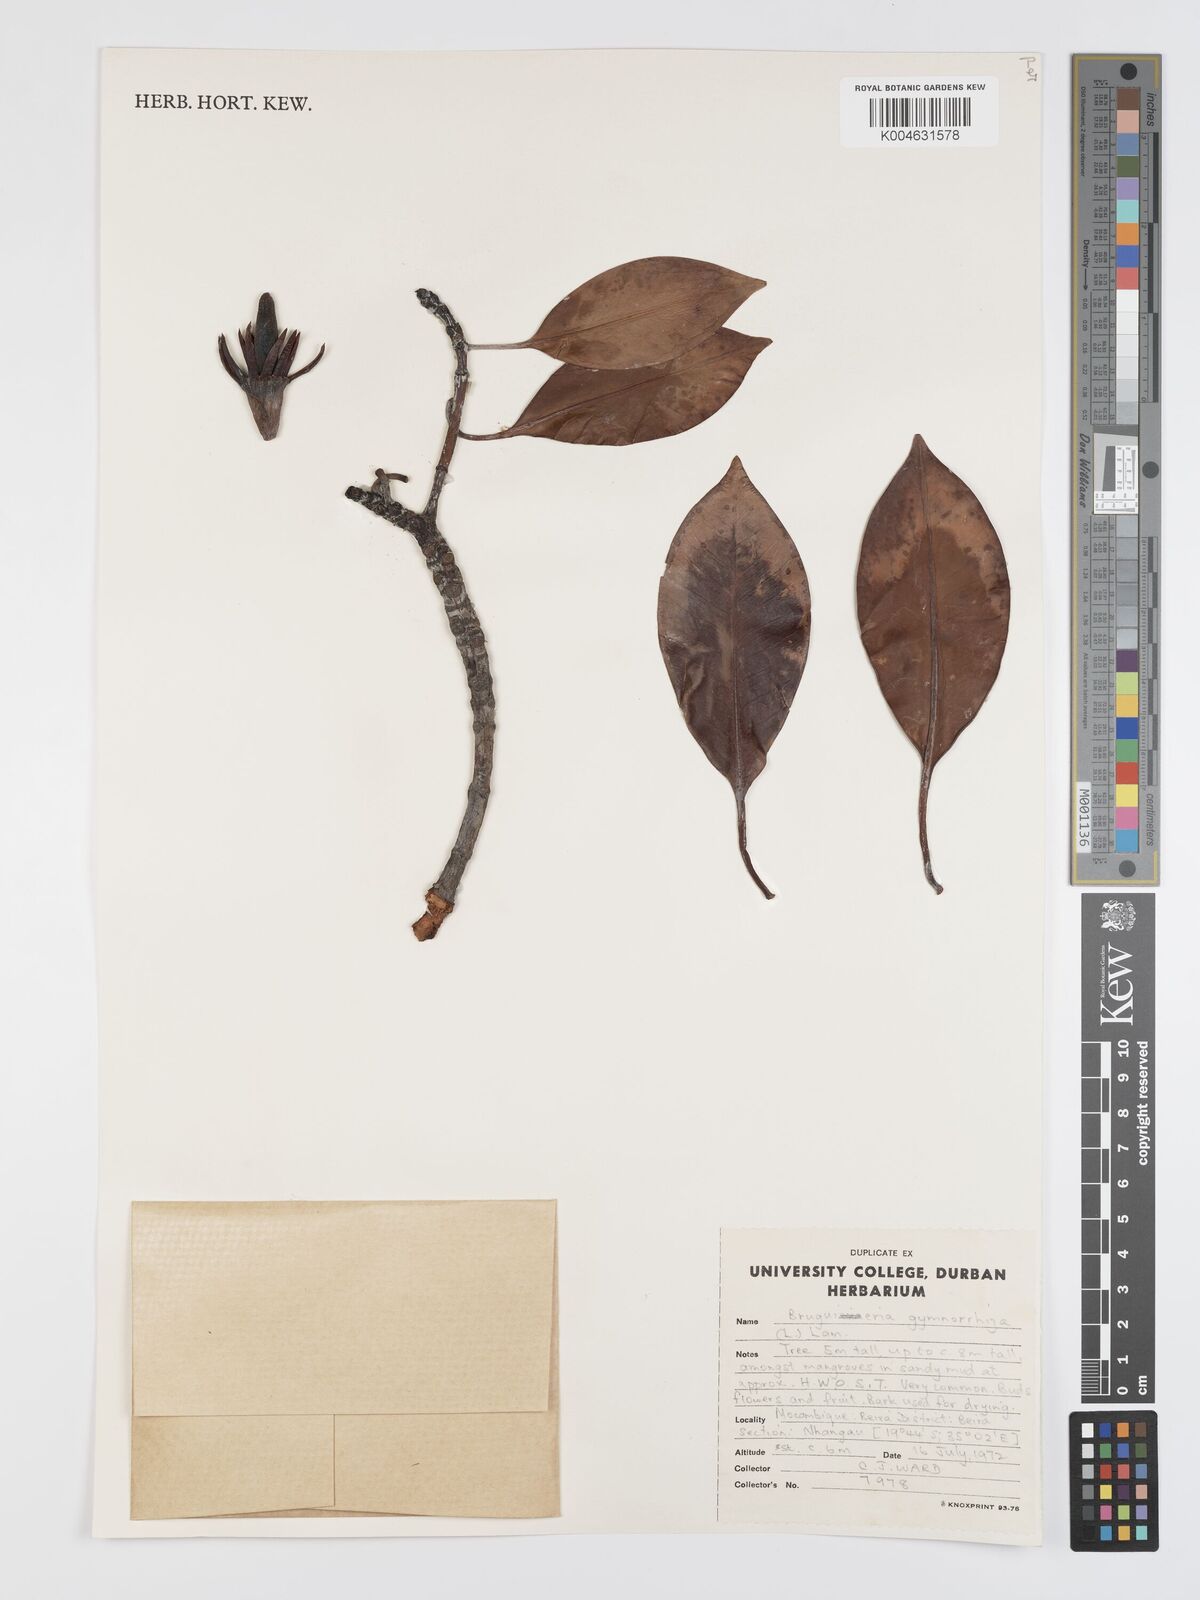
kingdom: Plantae
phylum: Tracheophyta
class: Magnoliopsida
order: Malpighiales
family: Rhizophoraceae
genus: Bruguiera
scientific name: Bruguiera gymnorhiza
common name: Oriental mangrove
